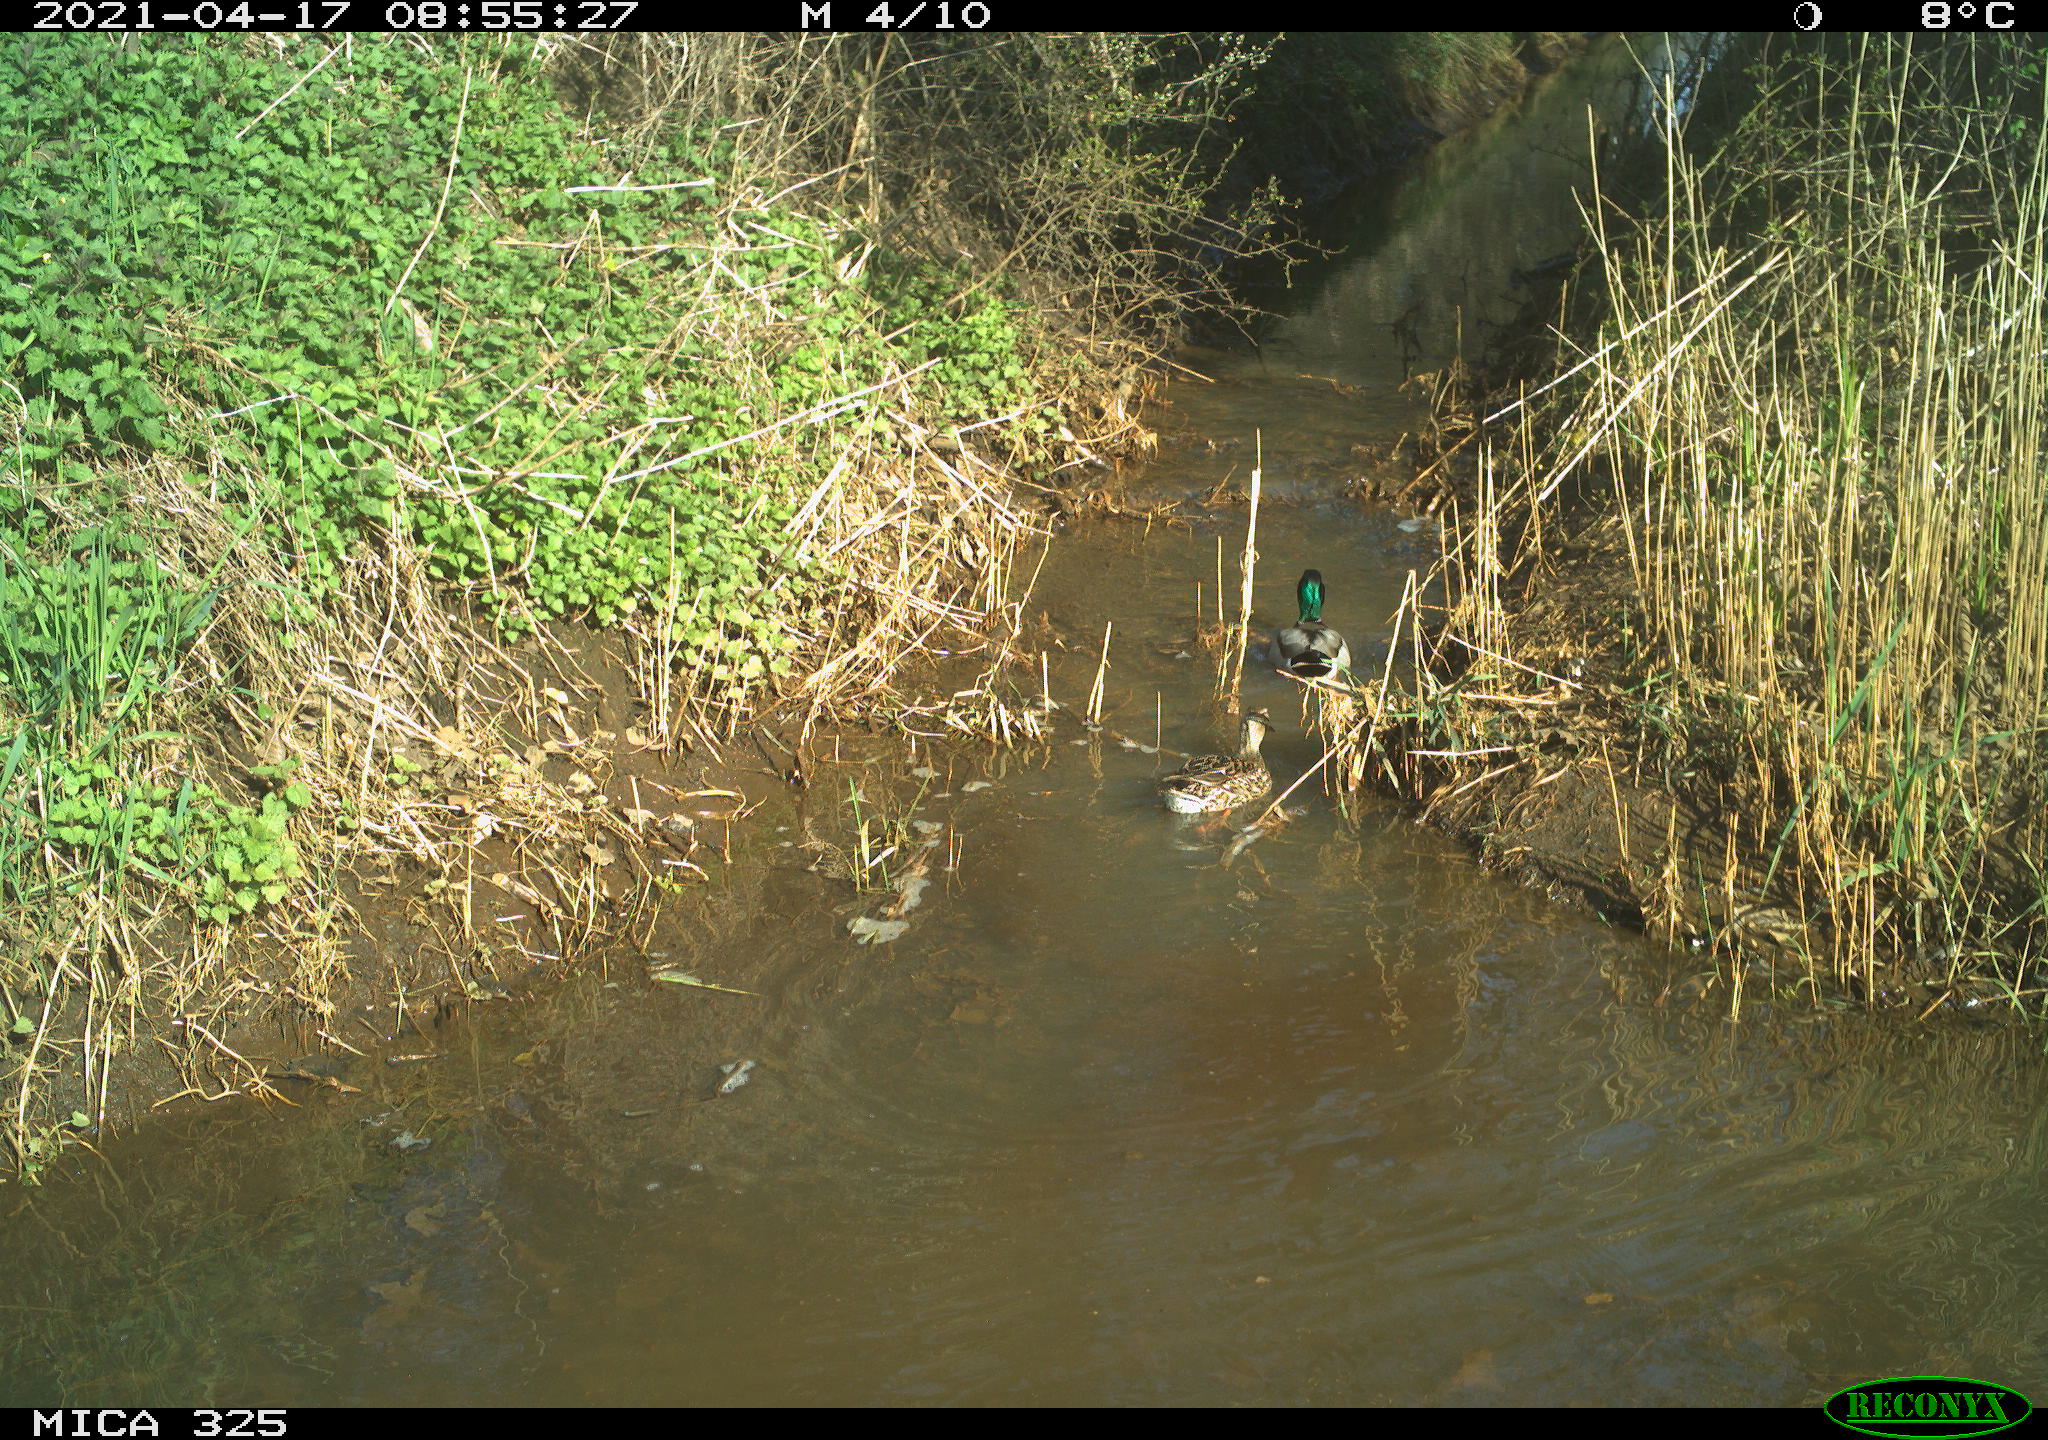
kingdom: Animalia
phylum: Chordata
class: Aves
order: Anseriformes
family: Anatidae
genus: Anas
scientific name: Anas platyrhynchos
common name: Mallard
